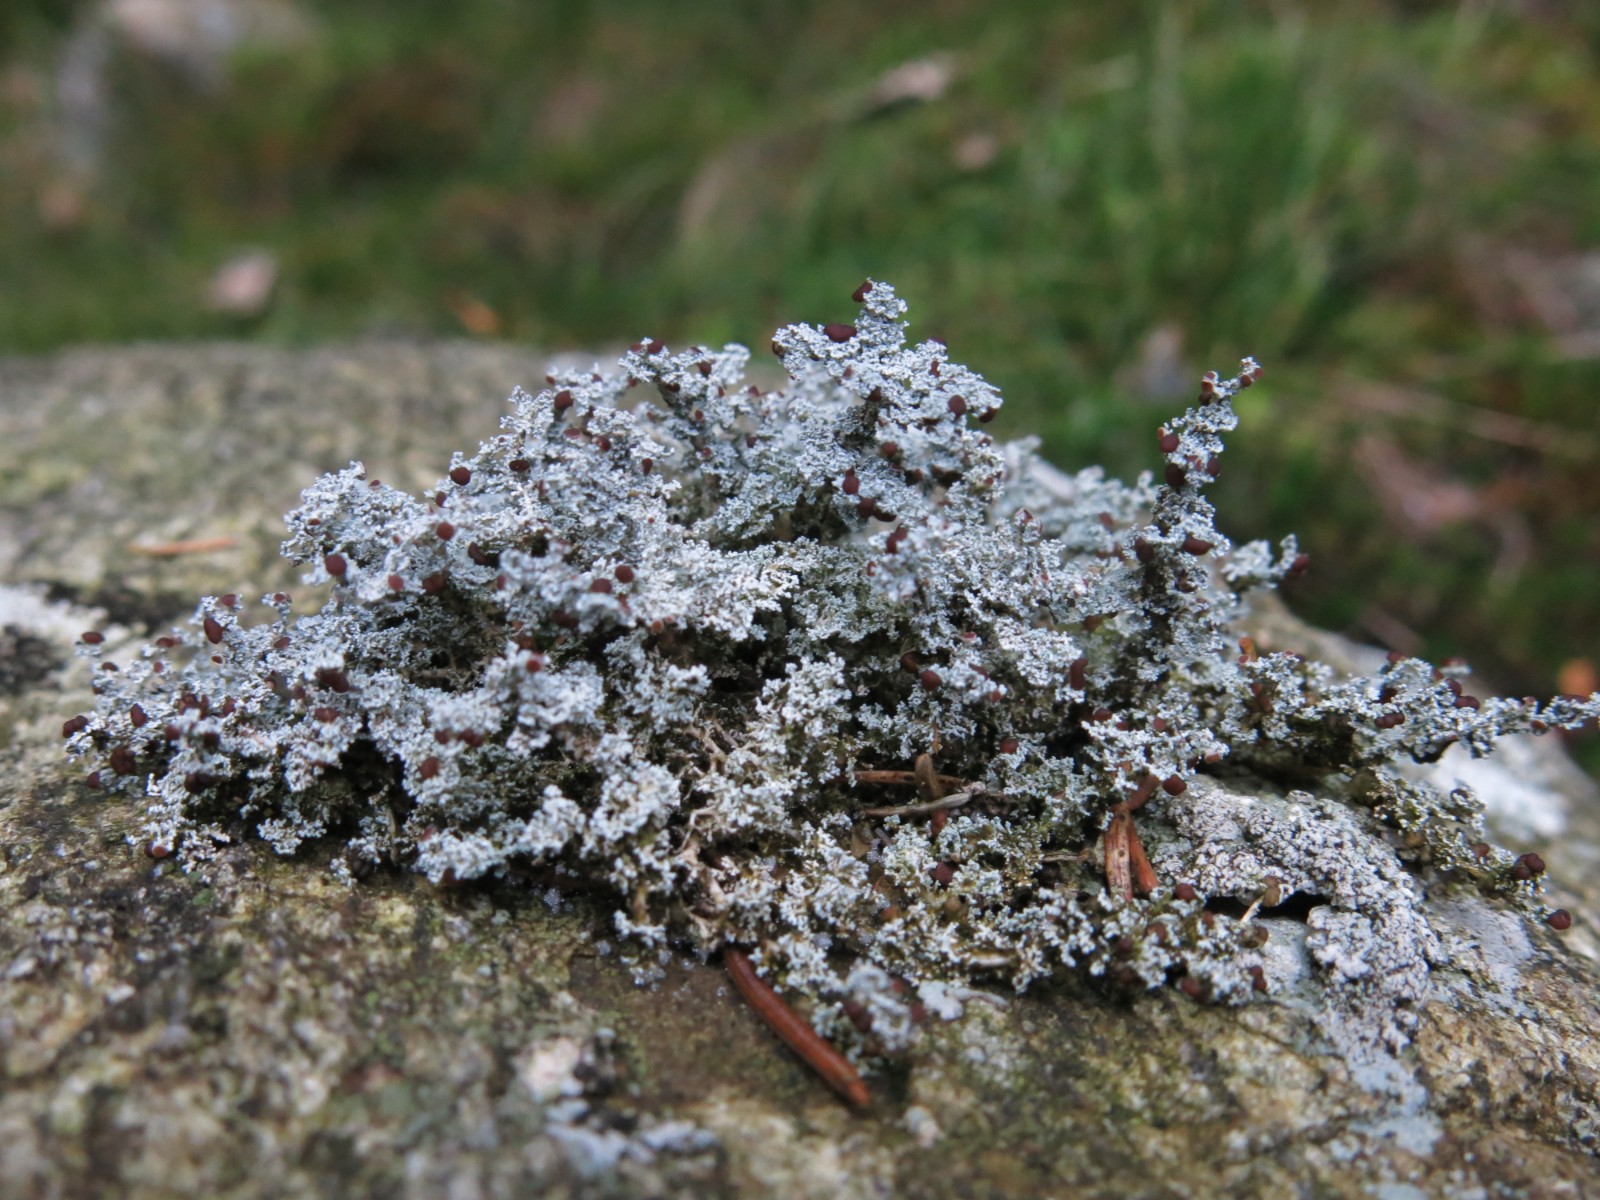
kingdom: Fungi
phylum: Ascomycota
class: Lecanoromycetes
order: Lecanorales
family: Stereocaulaceae
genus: Stereocaulon
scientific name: Stereocaulon dactylophyllum
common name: finger-korallav
